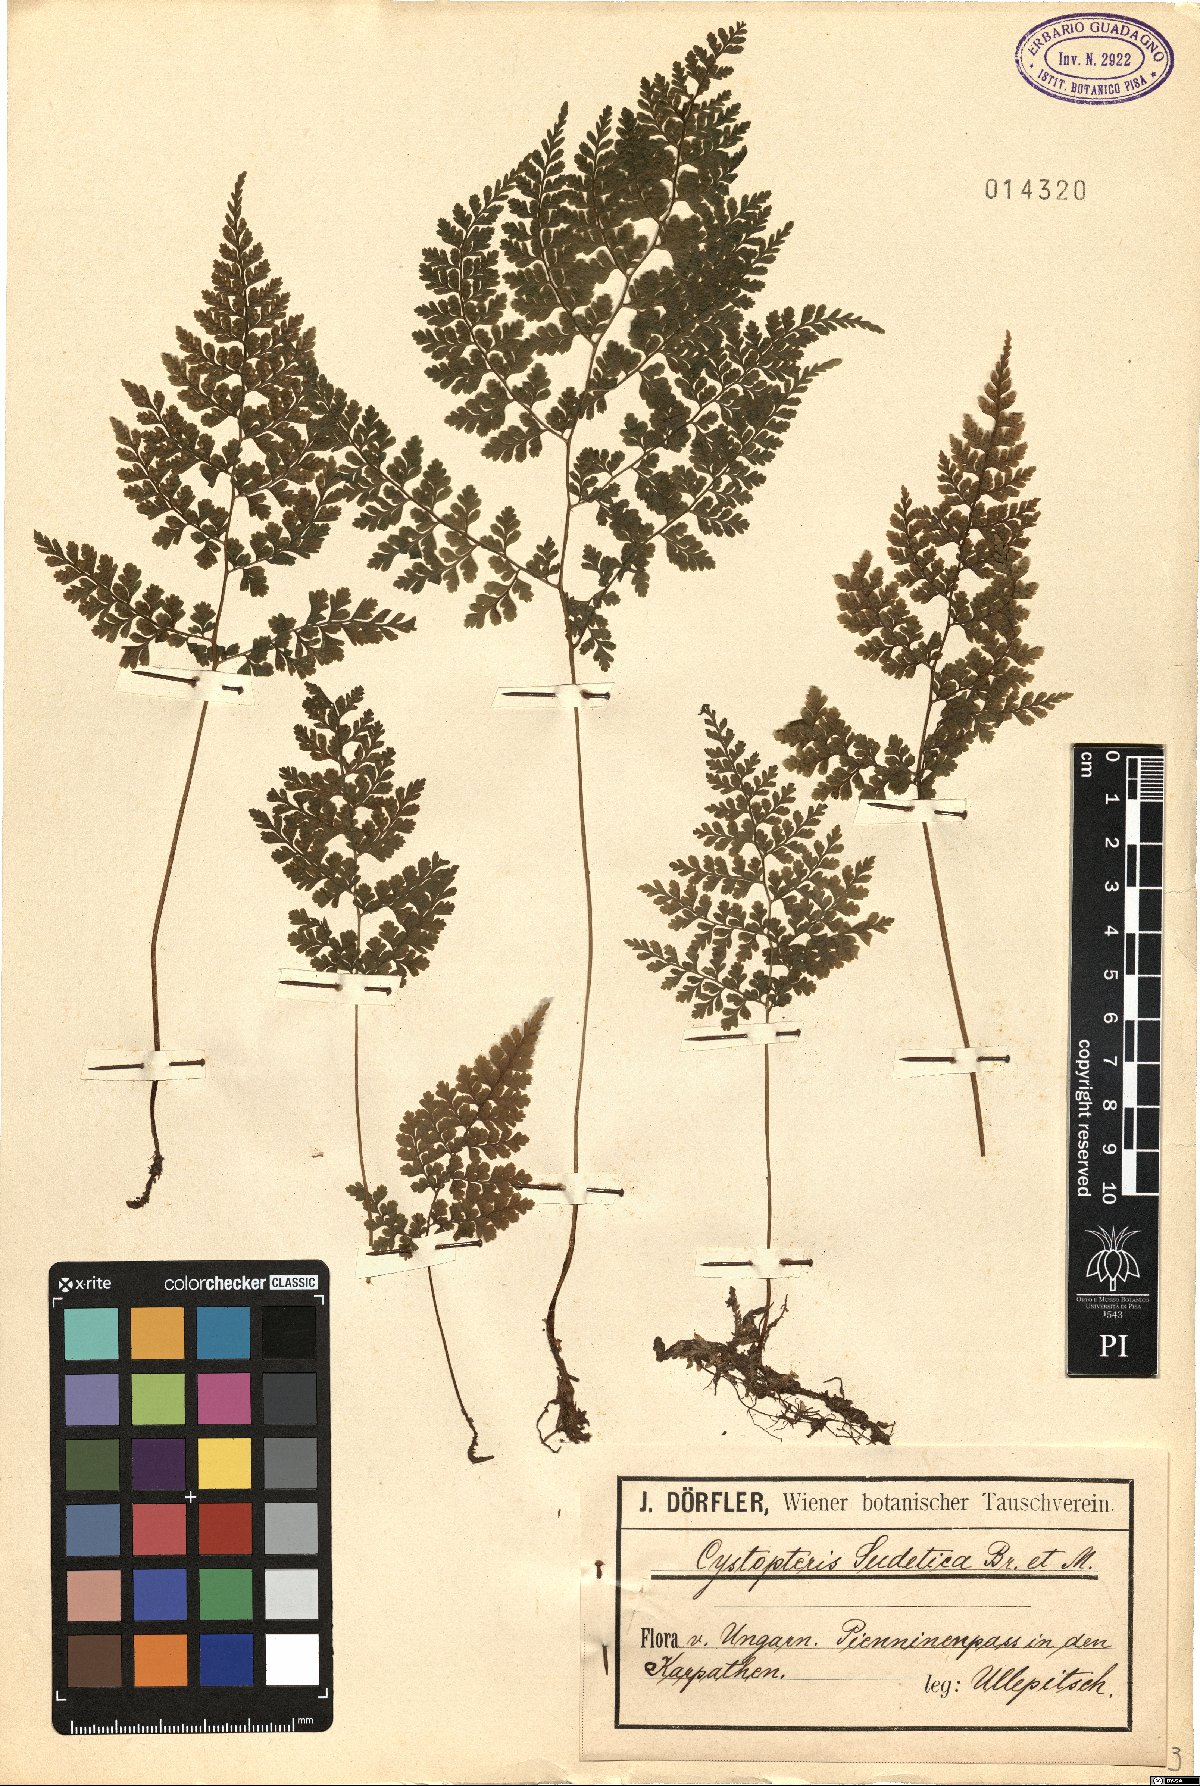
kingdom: Plantae
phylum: Tracheophyta
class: Polypodiopsida
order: Polypodiales
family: Cystopteridaceae
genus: Cystopteris
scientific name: Cystopteris sudetica
